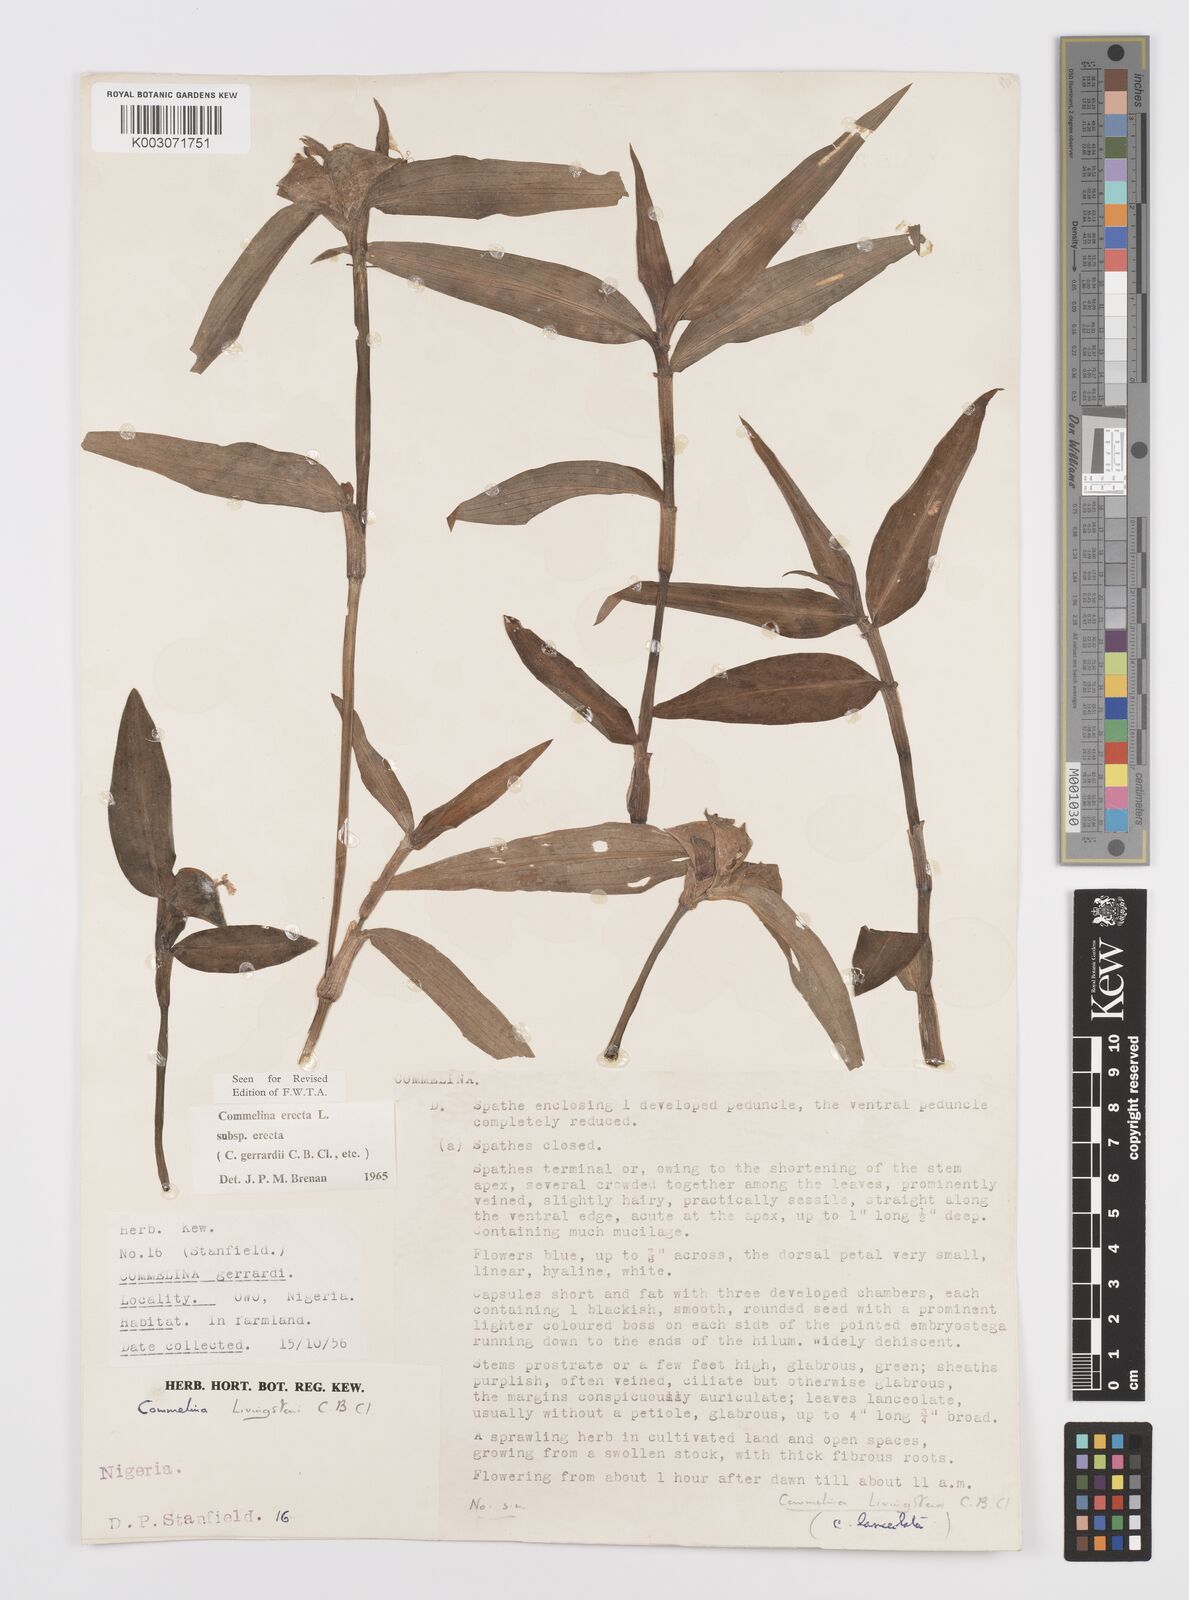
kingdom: Plantae
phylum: Tracheophyta
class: Liliopsida
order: Commelinales
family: Commelinaceae
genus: Commelina
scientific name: Commelina erecta
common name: Blousel blommetjie
